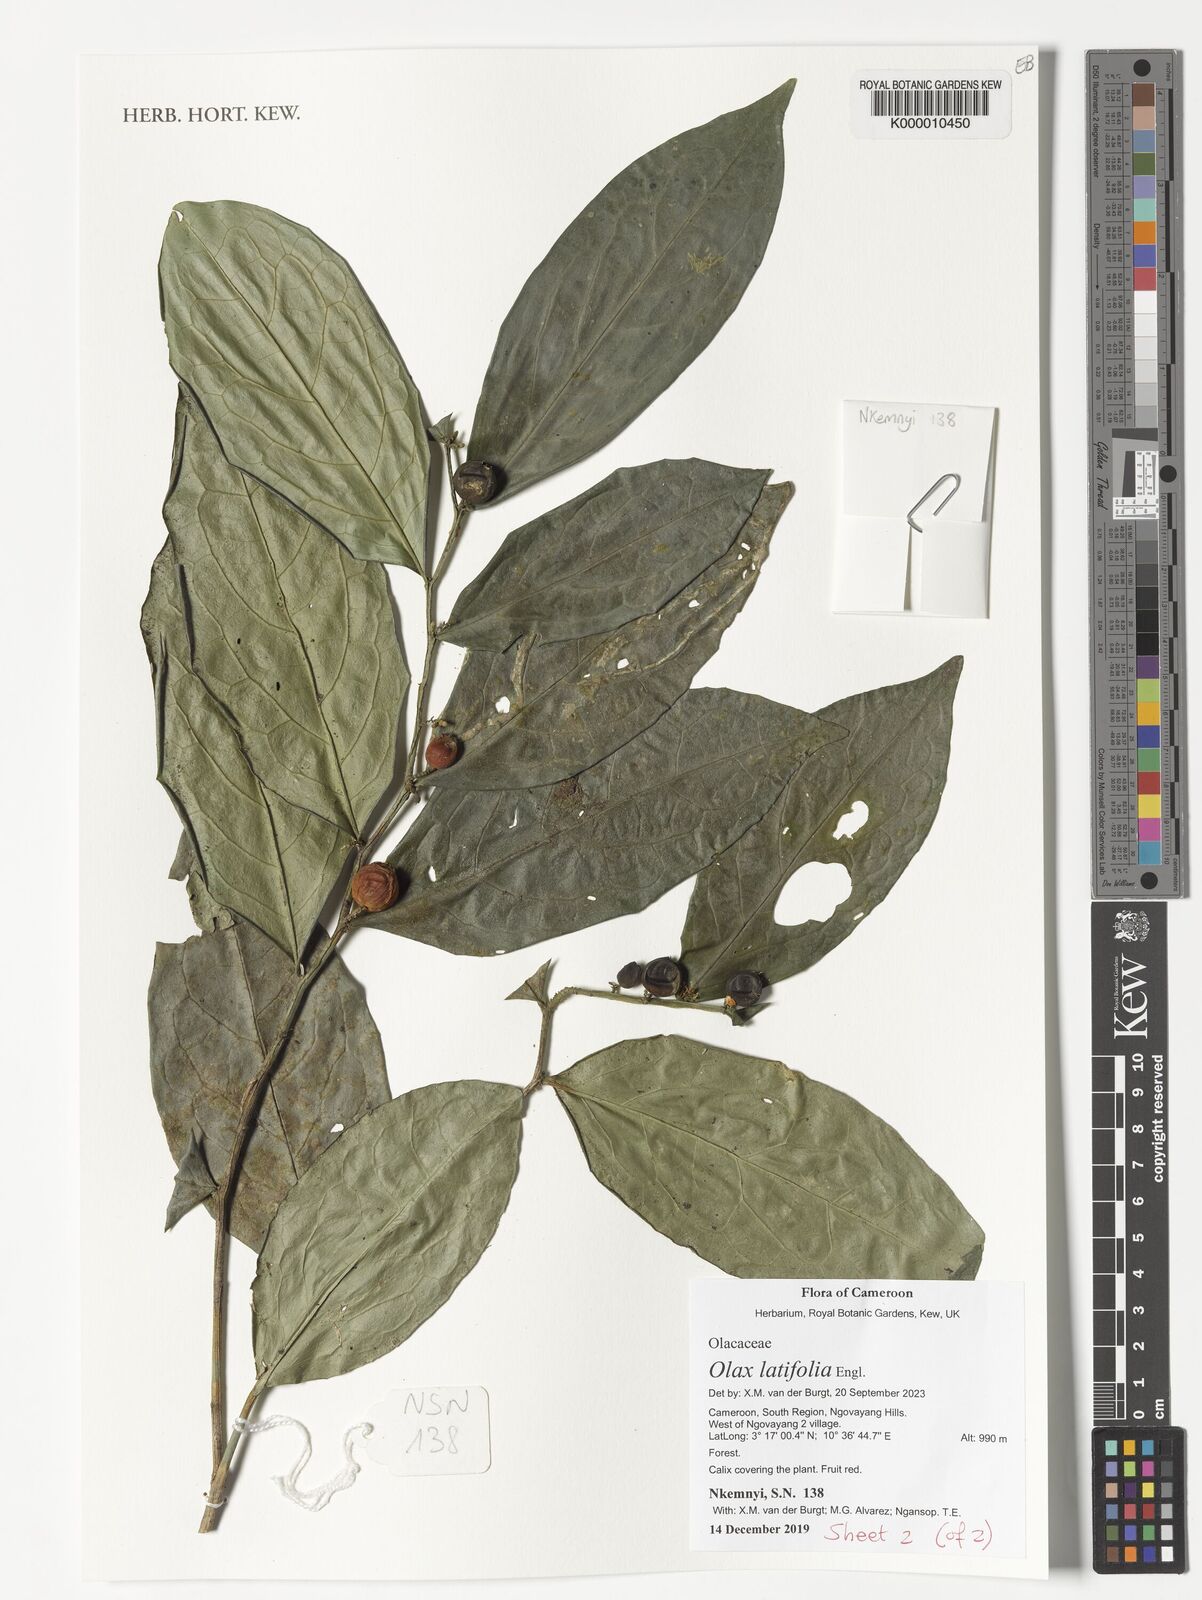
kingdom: Plantae
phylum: Tracheophyta
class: Magnoliopsida
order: Santalales
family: Olacaceae
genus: Olax
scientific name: Olax latifolia
